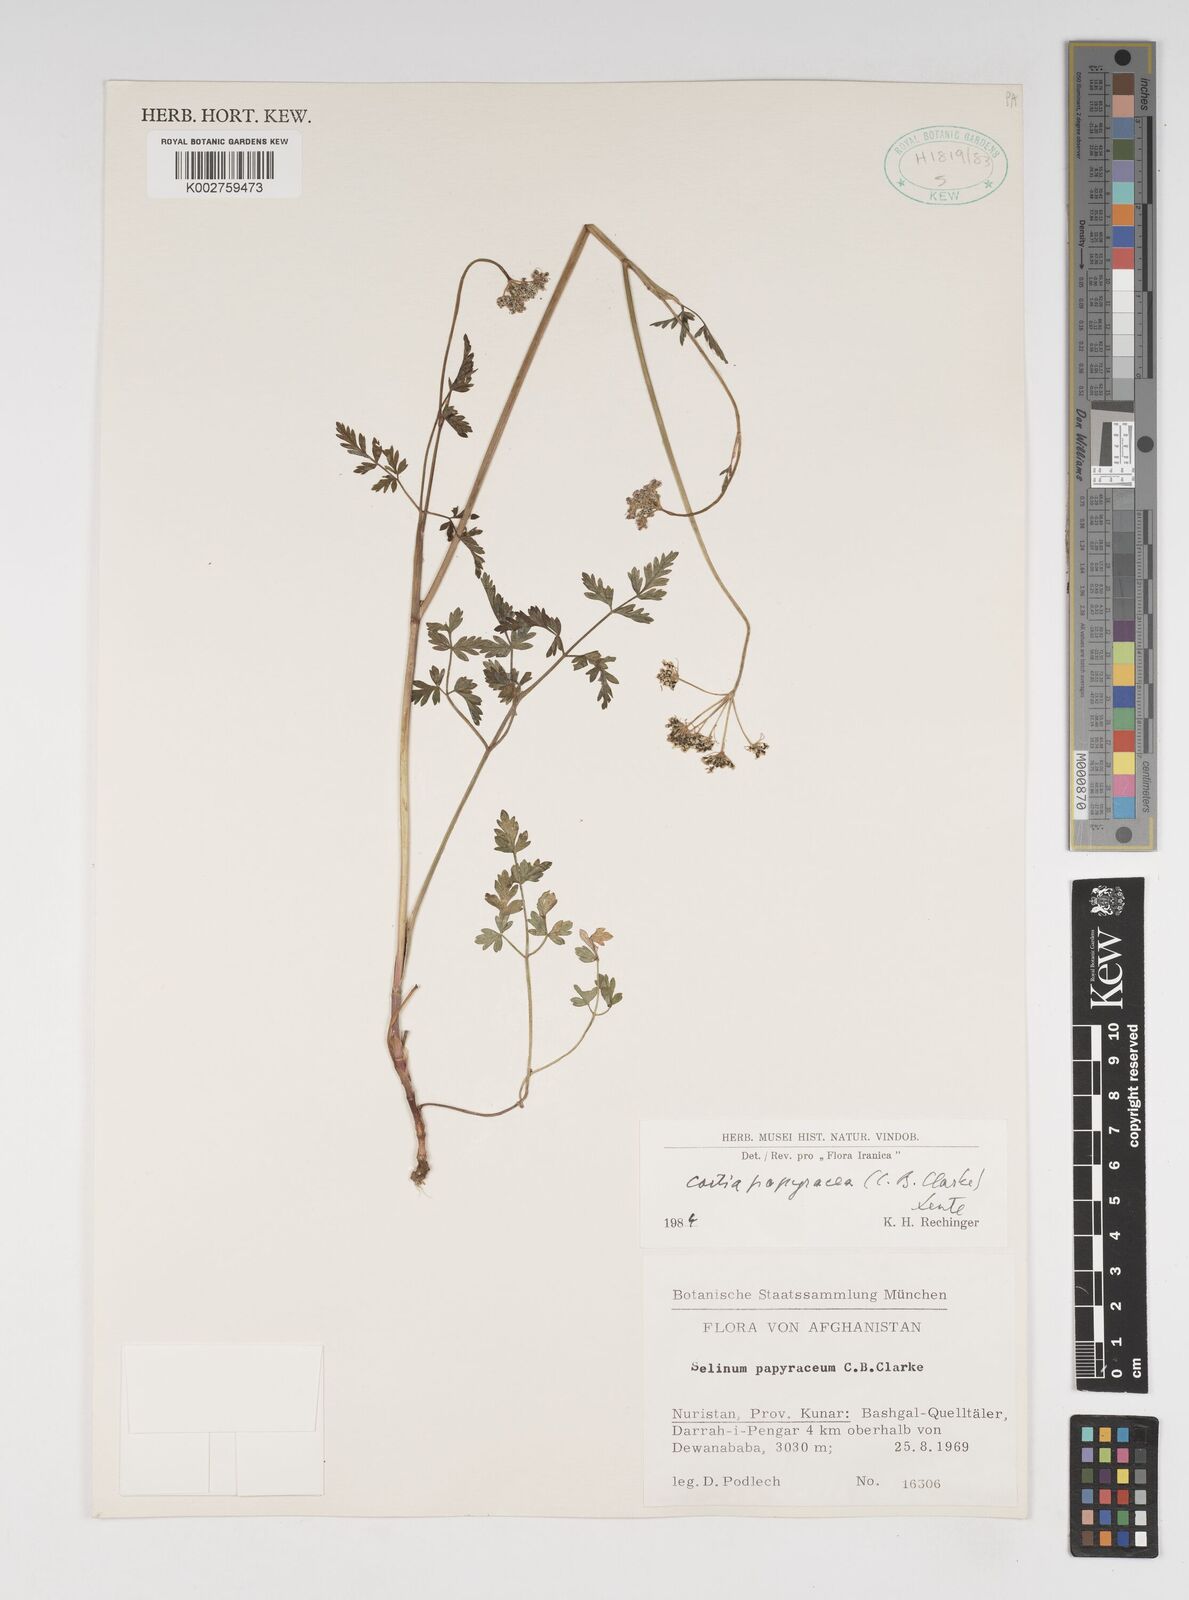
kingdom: Plantae
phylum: Tracheophyta
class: Magnoliopsida
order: Apiales
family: Apiaceae
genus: Conioselinum
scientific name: Conioselinum tataricum
